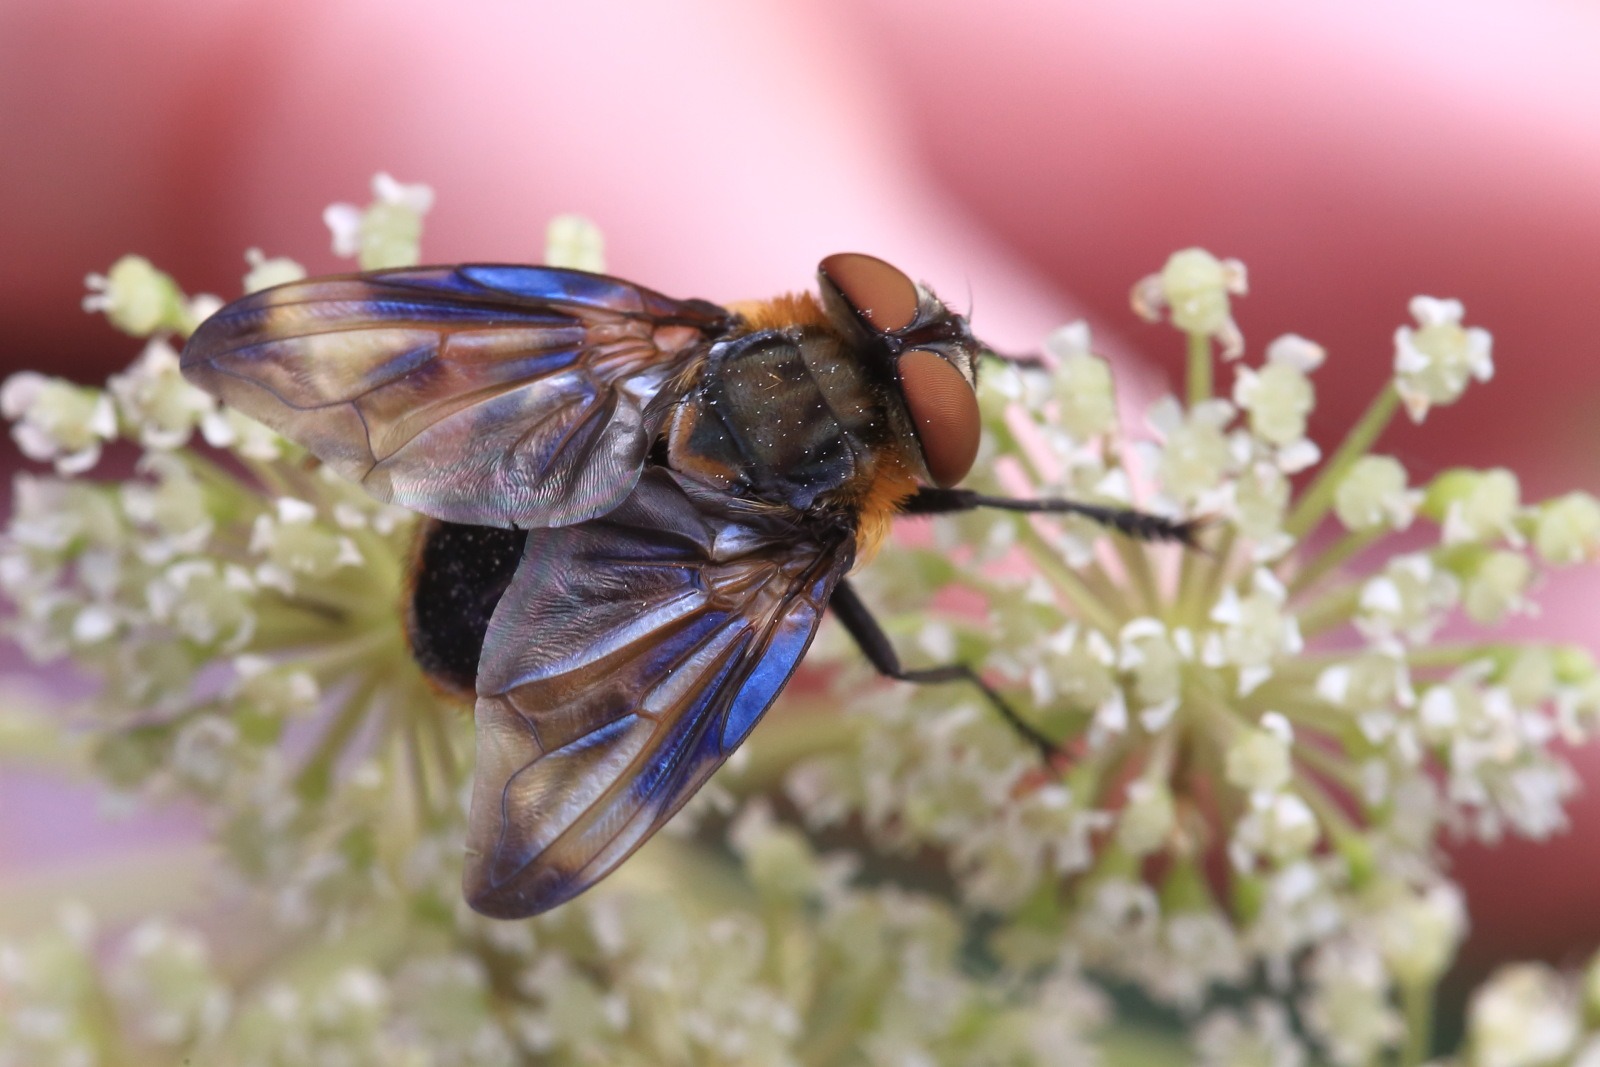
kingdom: Animalia
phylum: Arthropoda
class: Insecta
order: Diptera
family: Tachinidae
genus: Phasia
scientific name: Phasia hemiptera
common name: Blåvinget pragtsnylteflue
